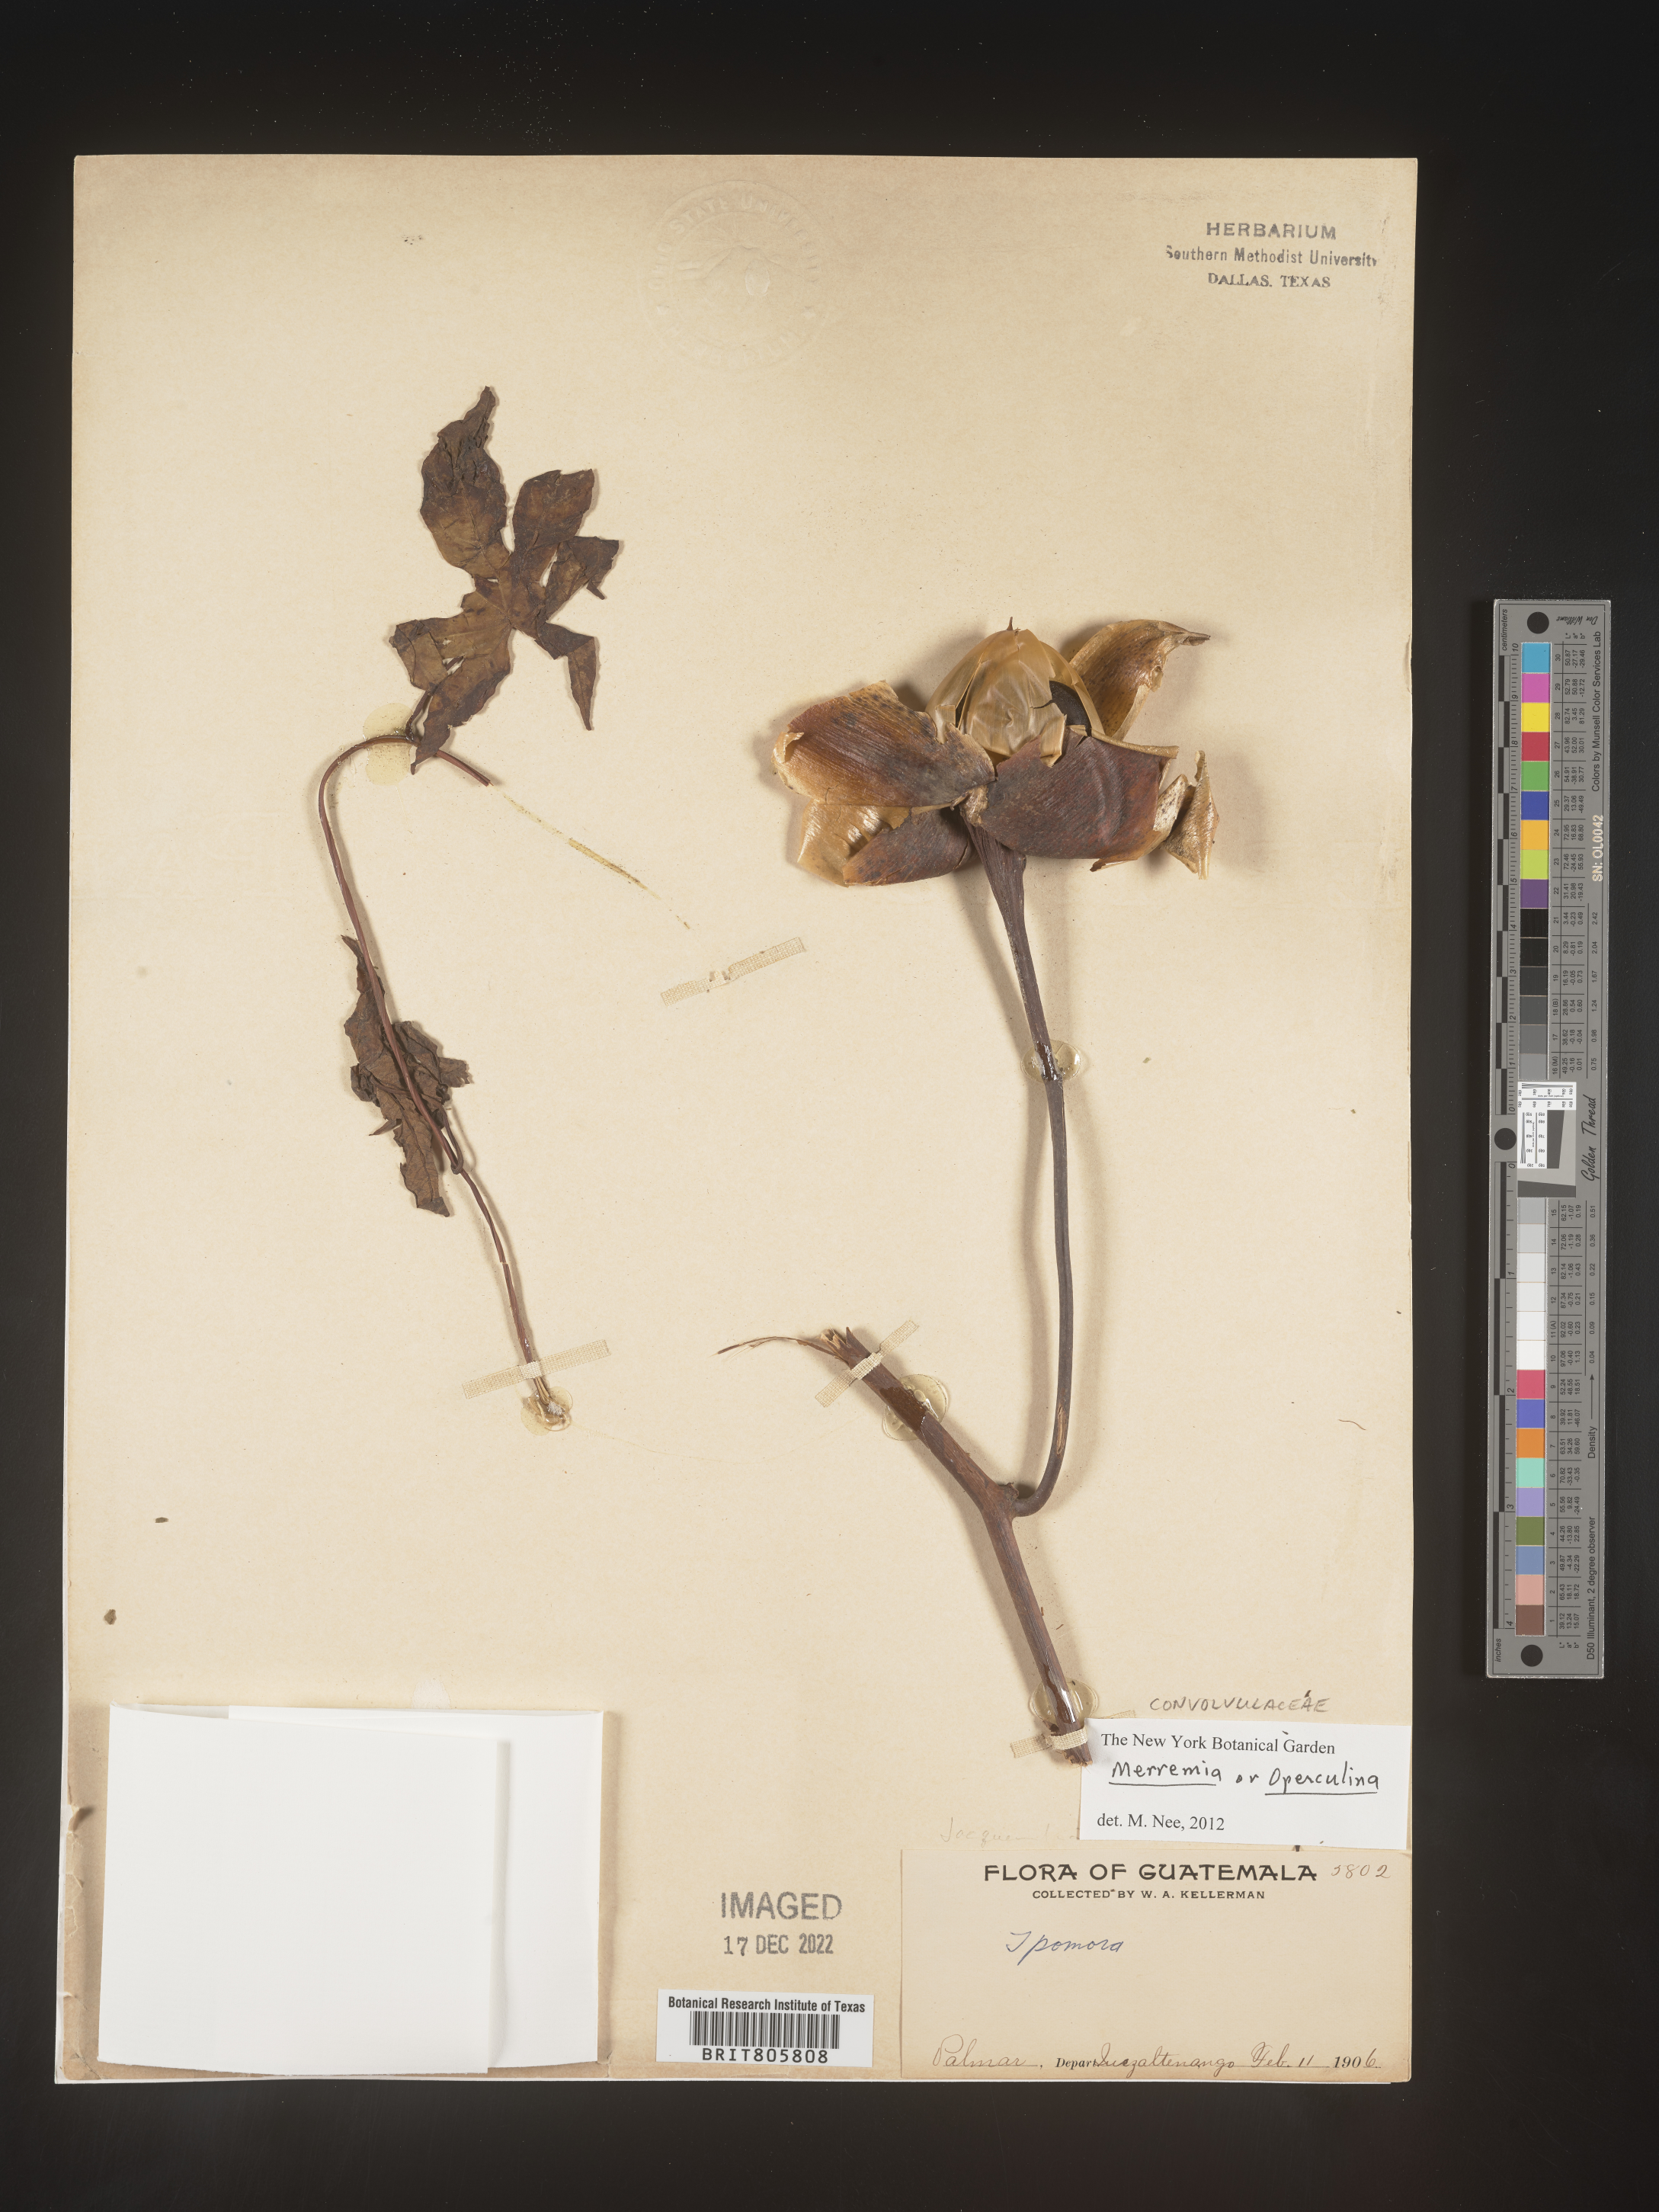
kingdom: Plantae
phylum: Tracheophyta
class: Magnoliopsida
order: Solanales
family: Convolvulaceae
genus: Merremia
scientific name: Merremia
